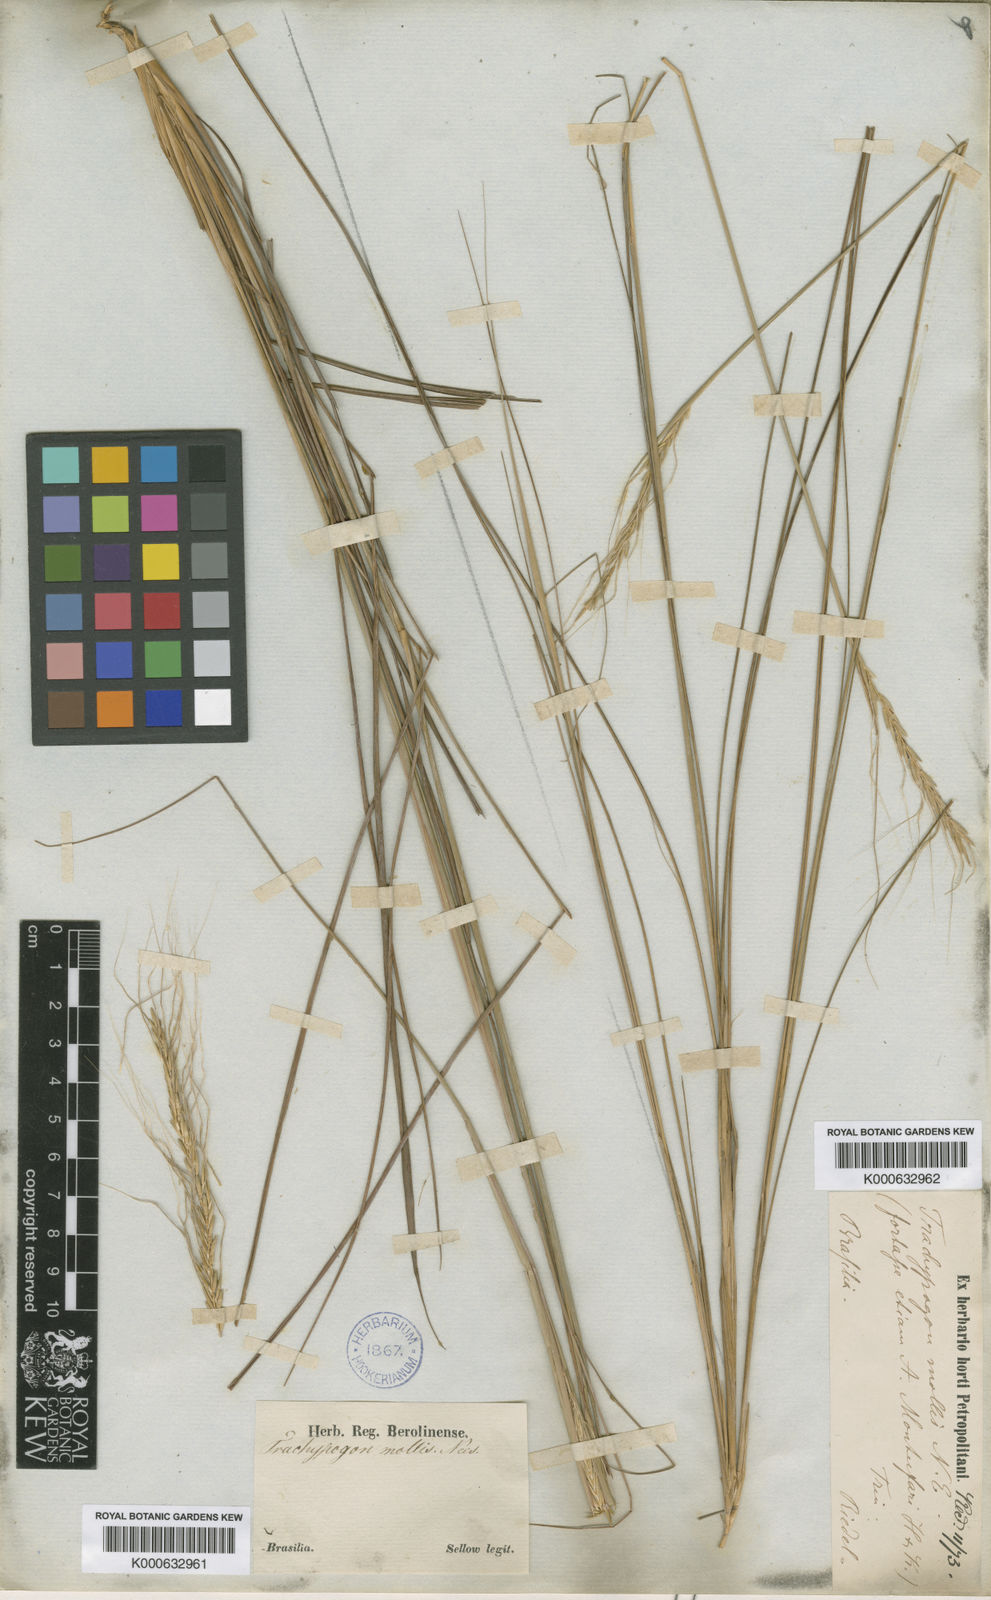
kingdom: Plantae
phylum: Tracheophyta
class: Liliopsida
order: Poales
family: Poaceae
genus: Trachypogon
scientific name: Trachypogon spicatus
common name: Crinkle-awn
